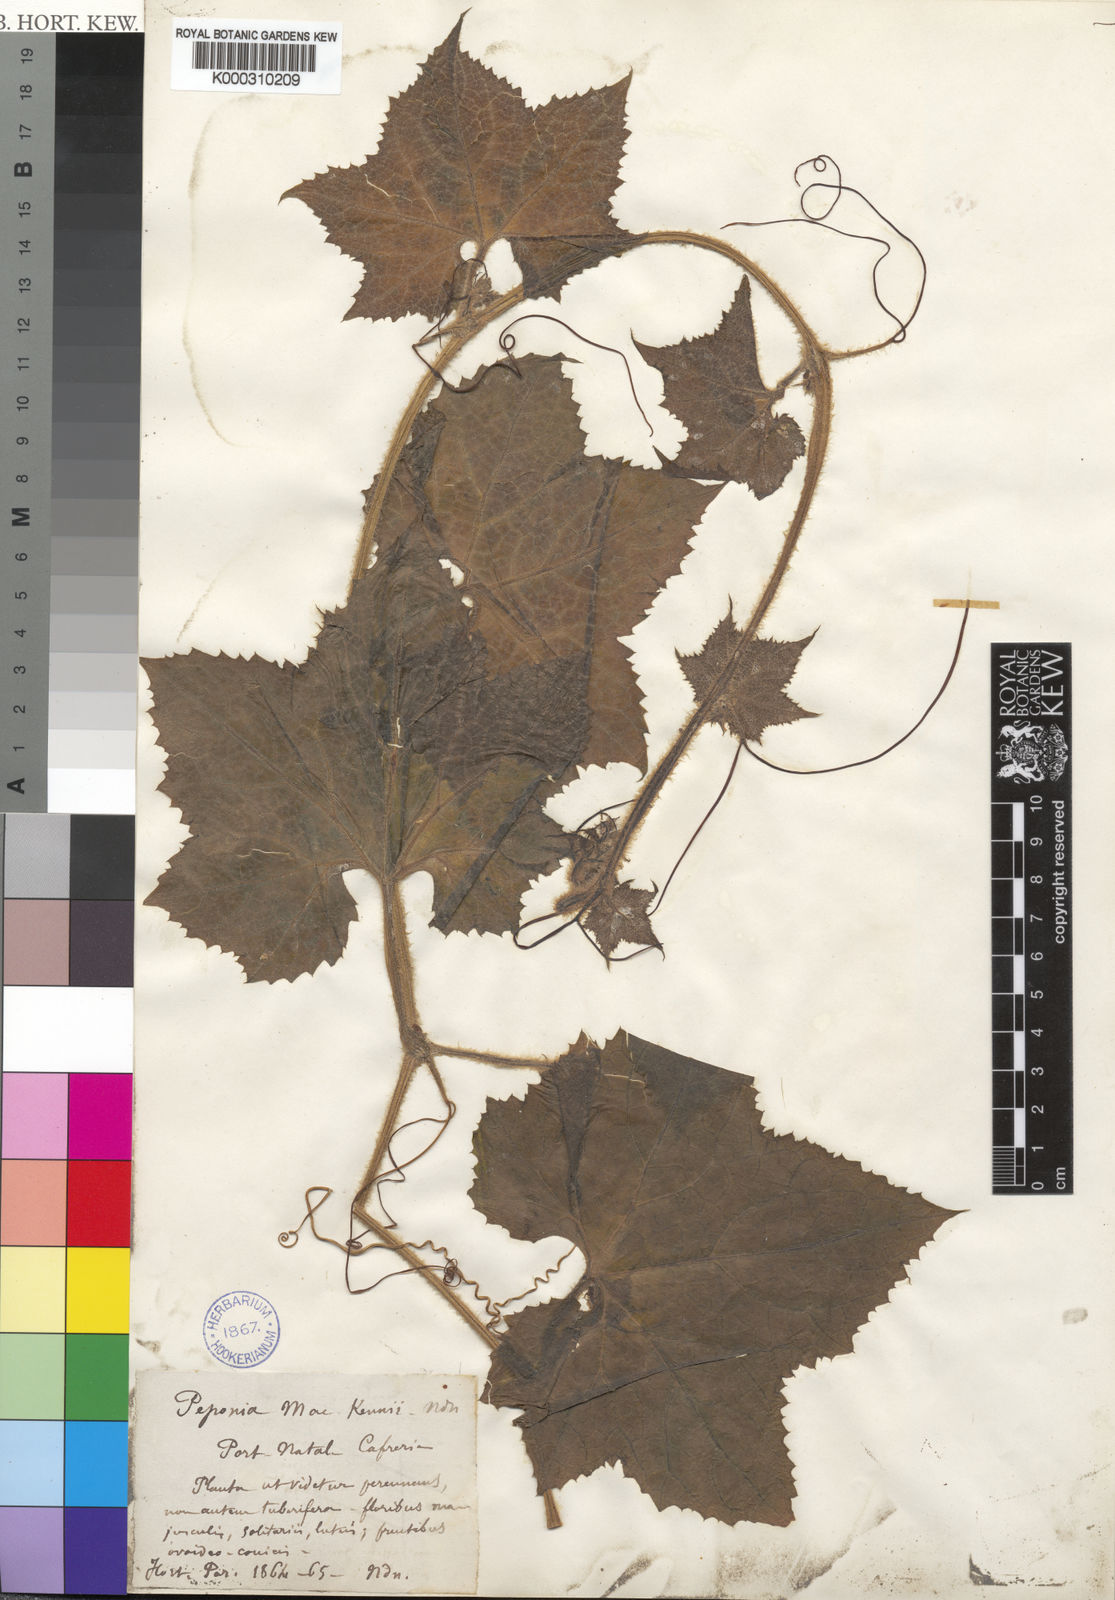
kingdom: Plantae
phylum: Tracheophyta
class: Magnoliopsida
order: Cucurbitales
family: Cucurbitaceae
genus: Peponium
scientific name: Peponium mackenii
